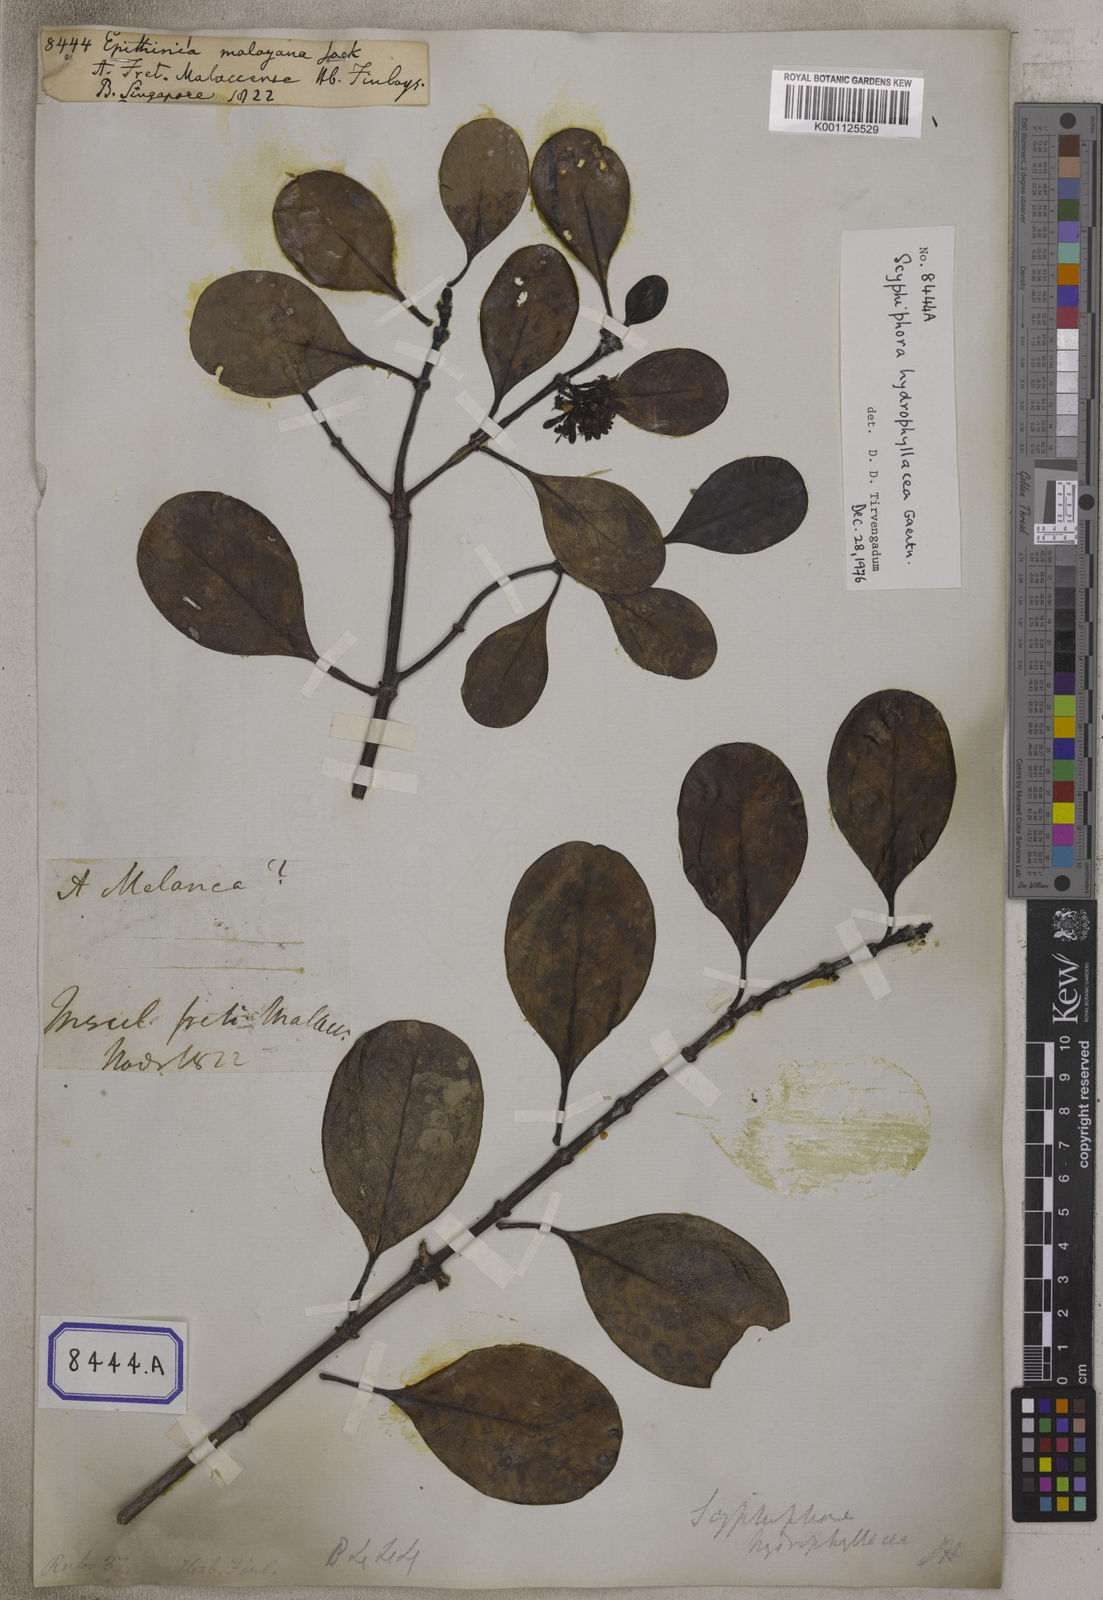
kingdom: Plantae
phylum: Tracheophyta
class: Magnoliopsida
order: Gentianales
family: Rubiaceae
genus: Scyphiphora
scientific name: Scyphiphora hydrophylacea
